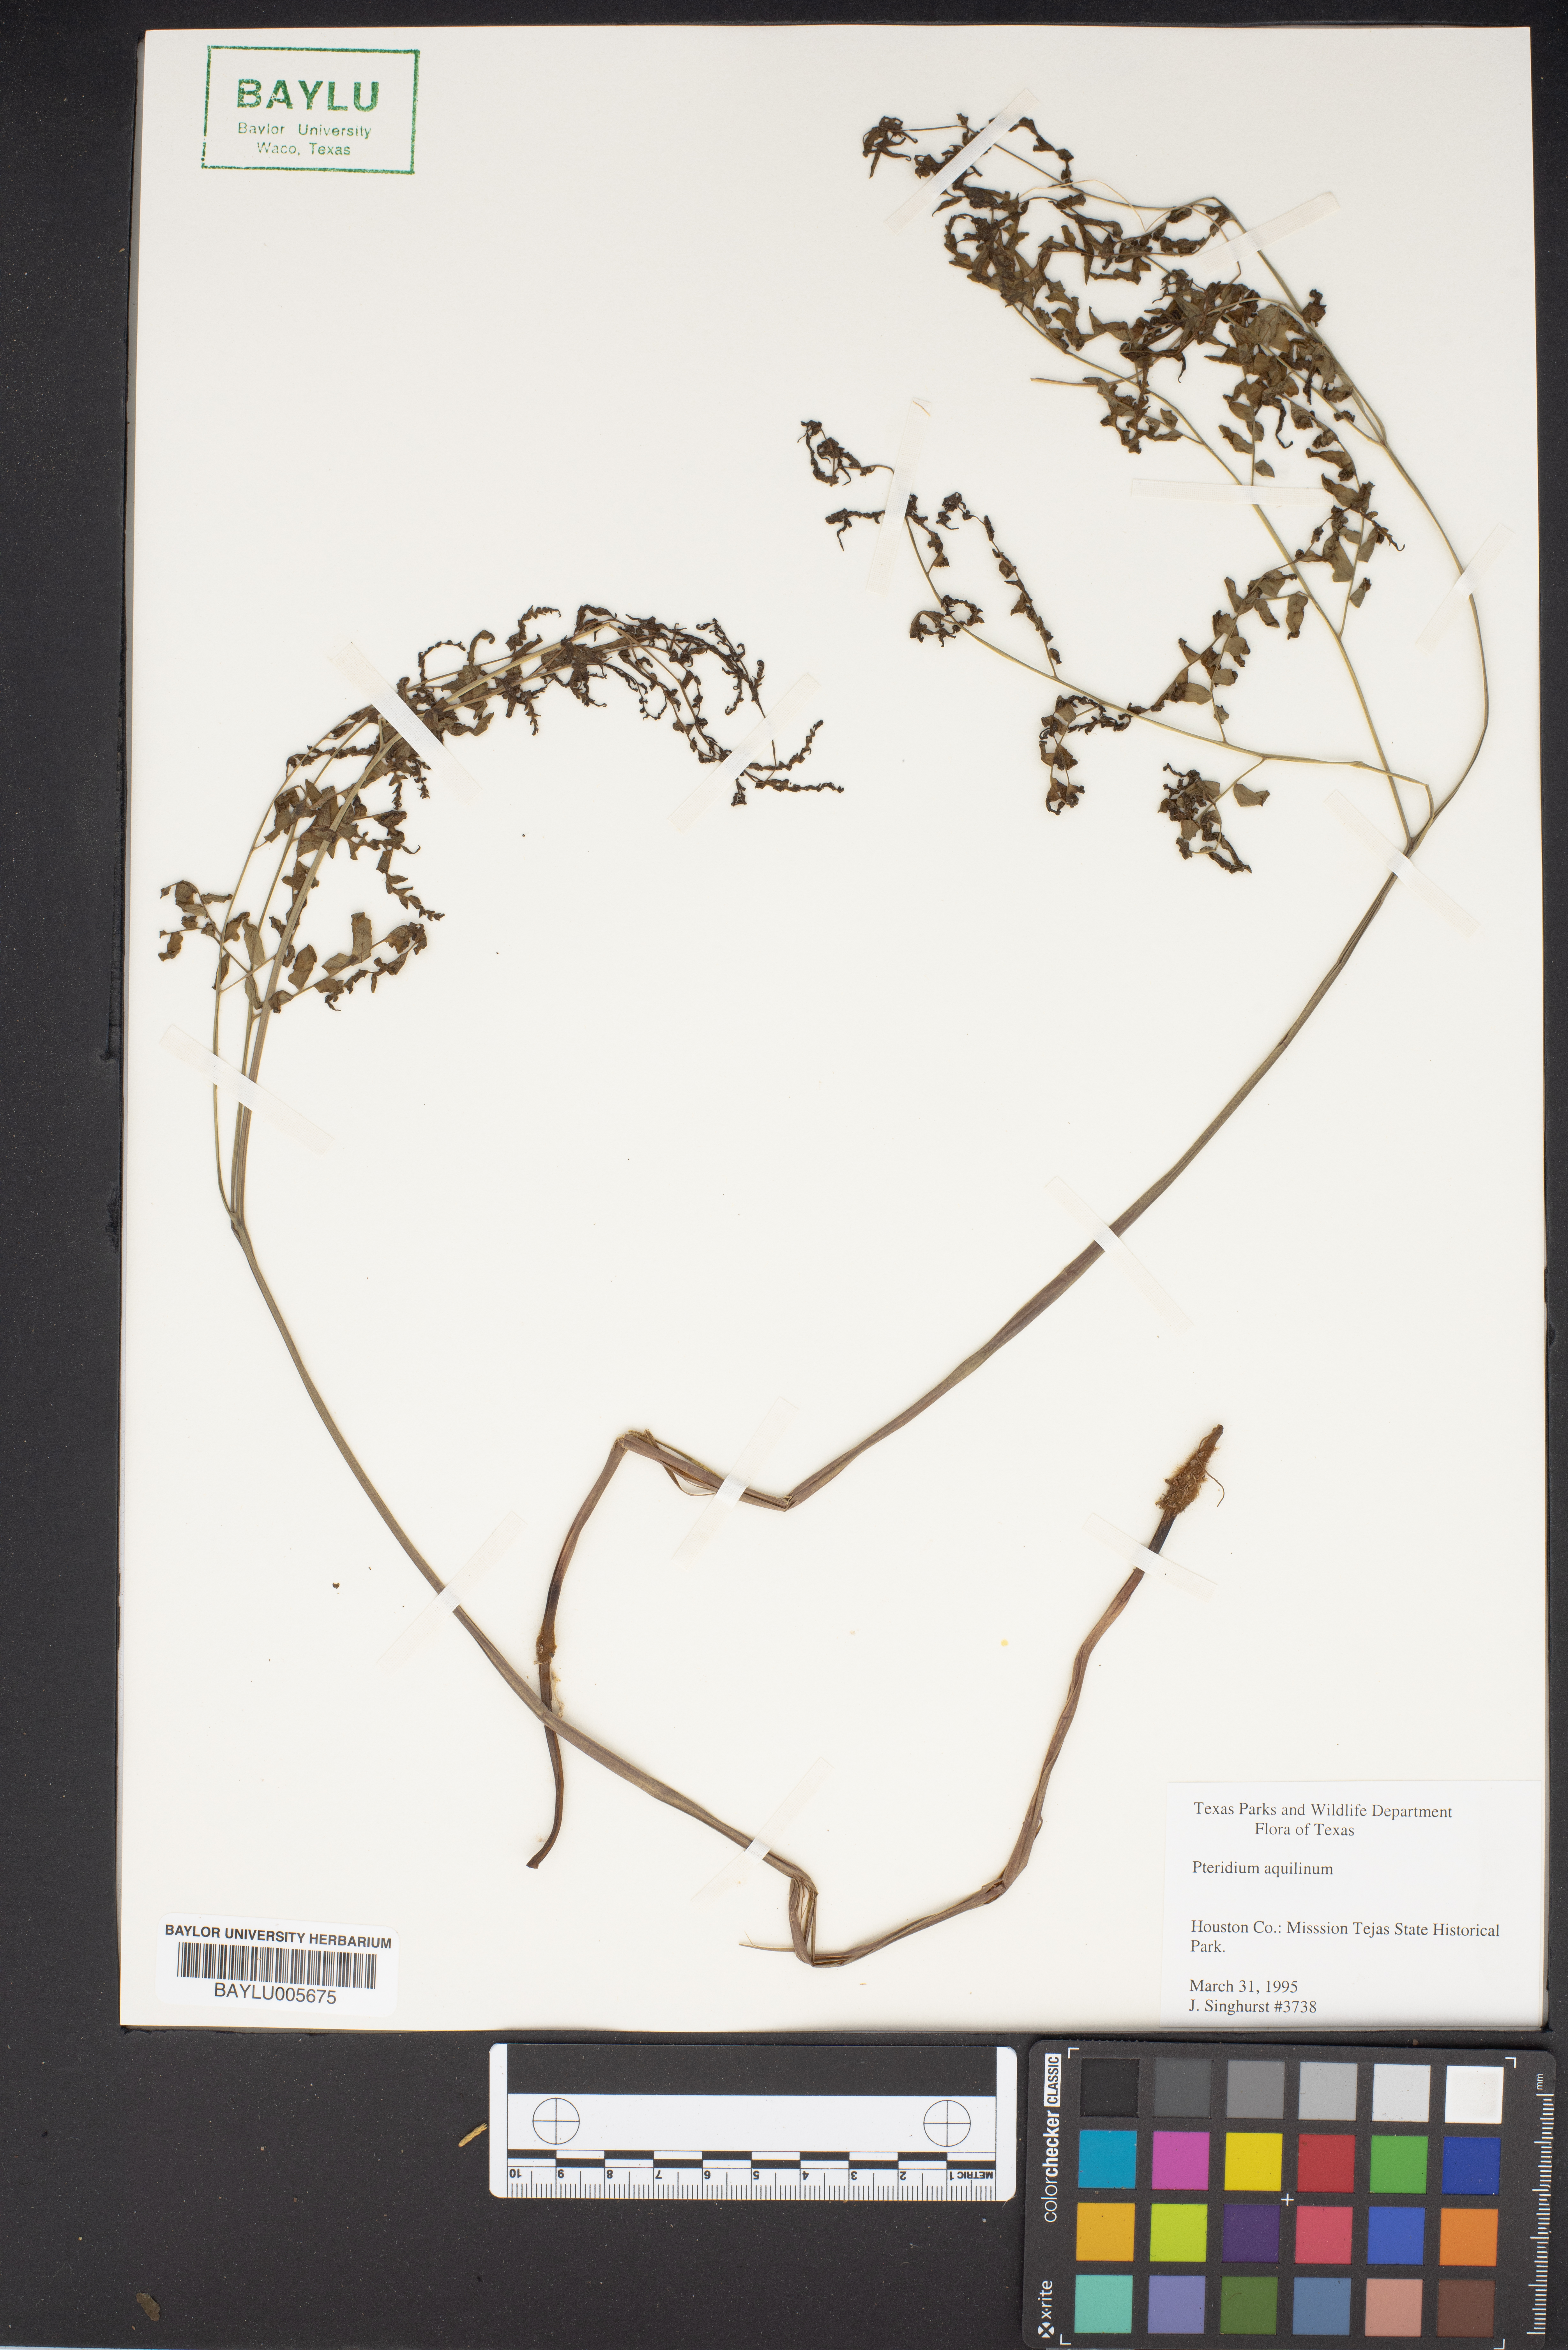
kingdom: Plantae
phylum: Tracheophyta
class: Polypodiopsida
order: Polypodiales
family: Dennstaedtiaceae
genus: Pteridium
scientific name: Pteridium aquilinum
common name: Bracken
